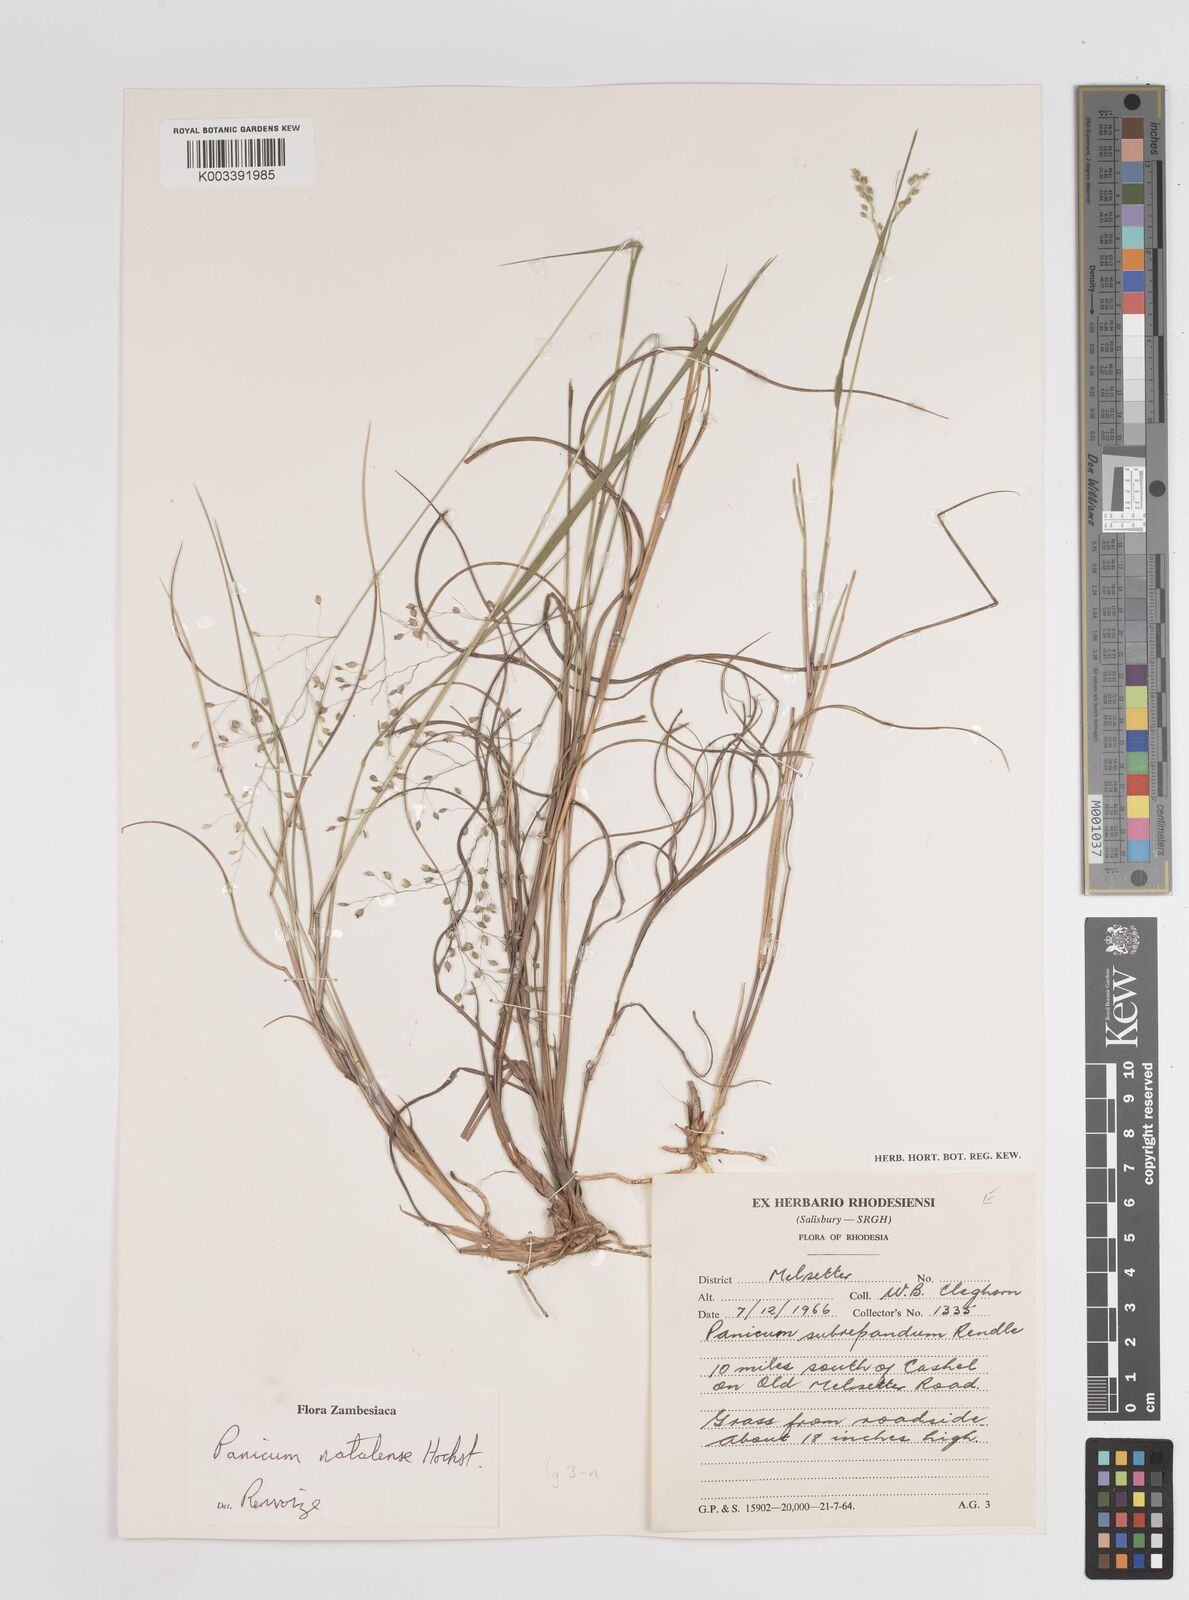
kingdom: Plantae
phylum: Tracheophyta
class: Liliopsida
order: Poales
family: Poaceae
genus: Trichanthecium
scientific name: Trichanthecium natalense
